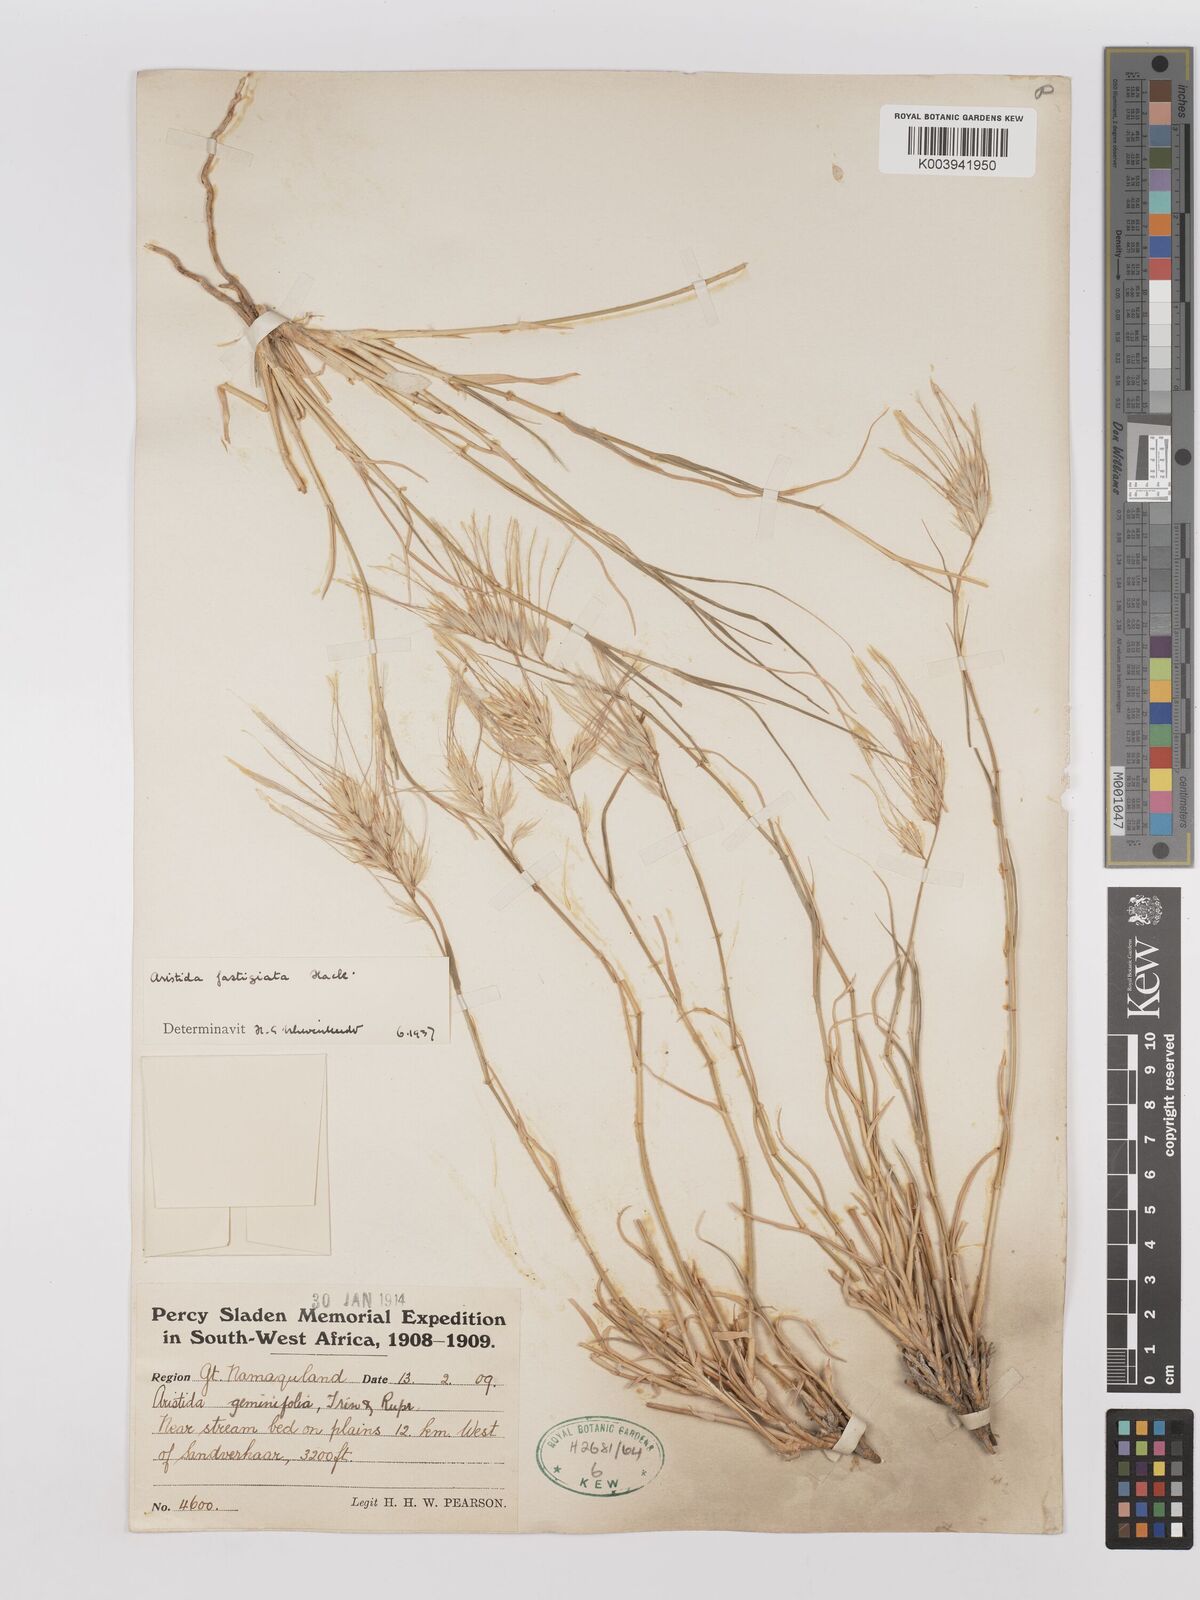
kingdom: Plantae
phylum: Tracheophyta
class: Liliopsida
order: Poales
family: Poaceae
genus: Stipagrostis
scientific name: Stipagrostis fastigiata
